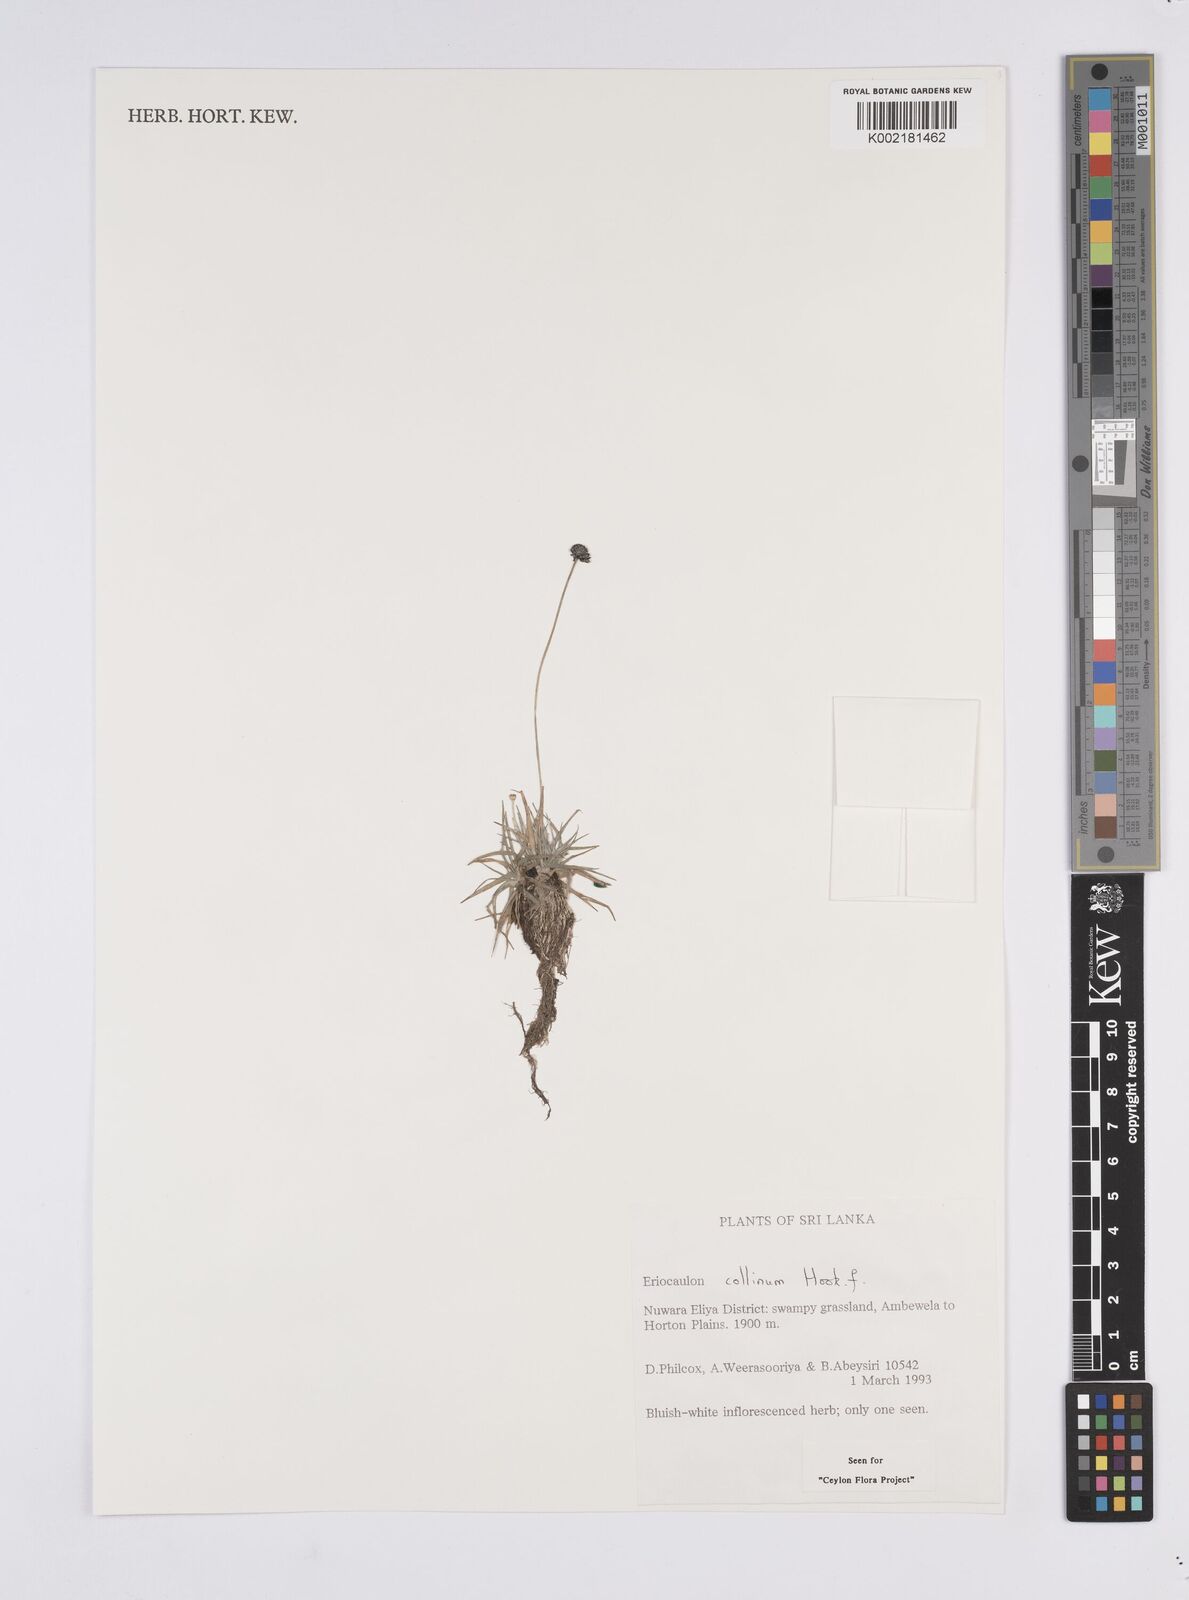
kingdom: Plantae
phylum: Tracheophyta
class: Liliopsida
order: Poales
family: Eriocaulaceae
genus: Eriocaulon
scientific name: Eriocaulon odoratum
